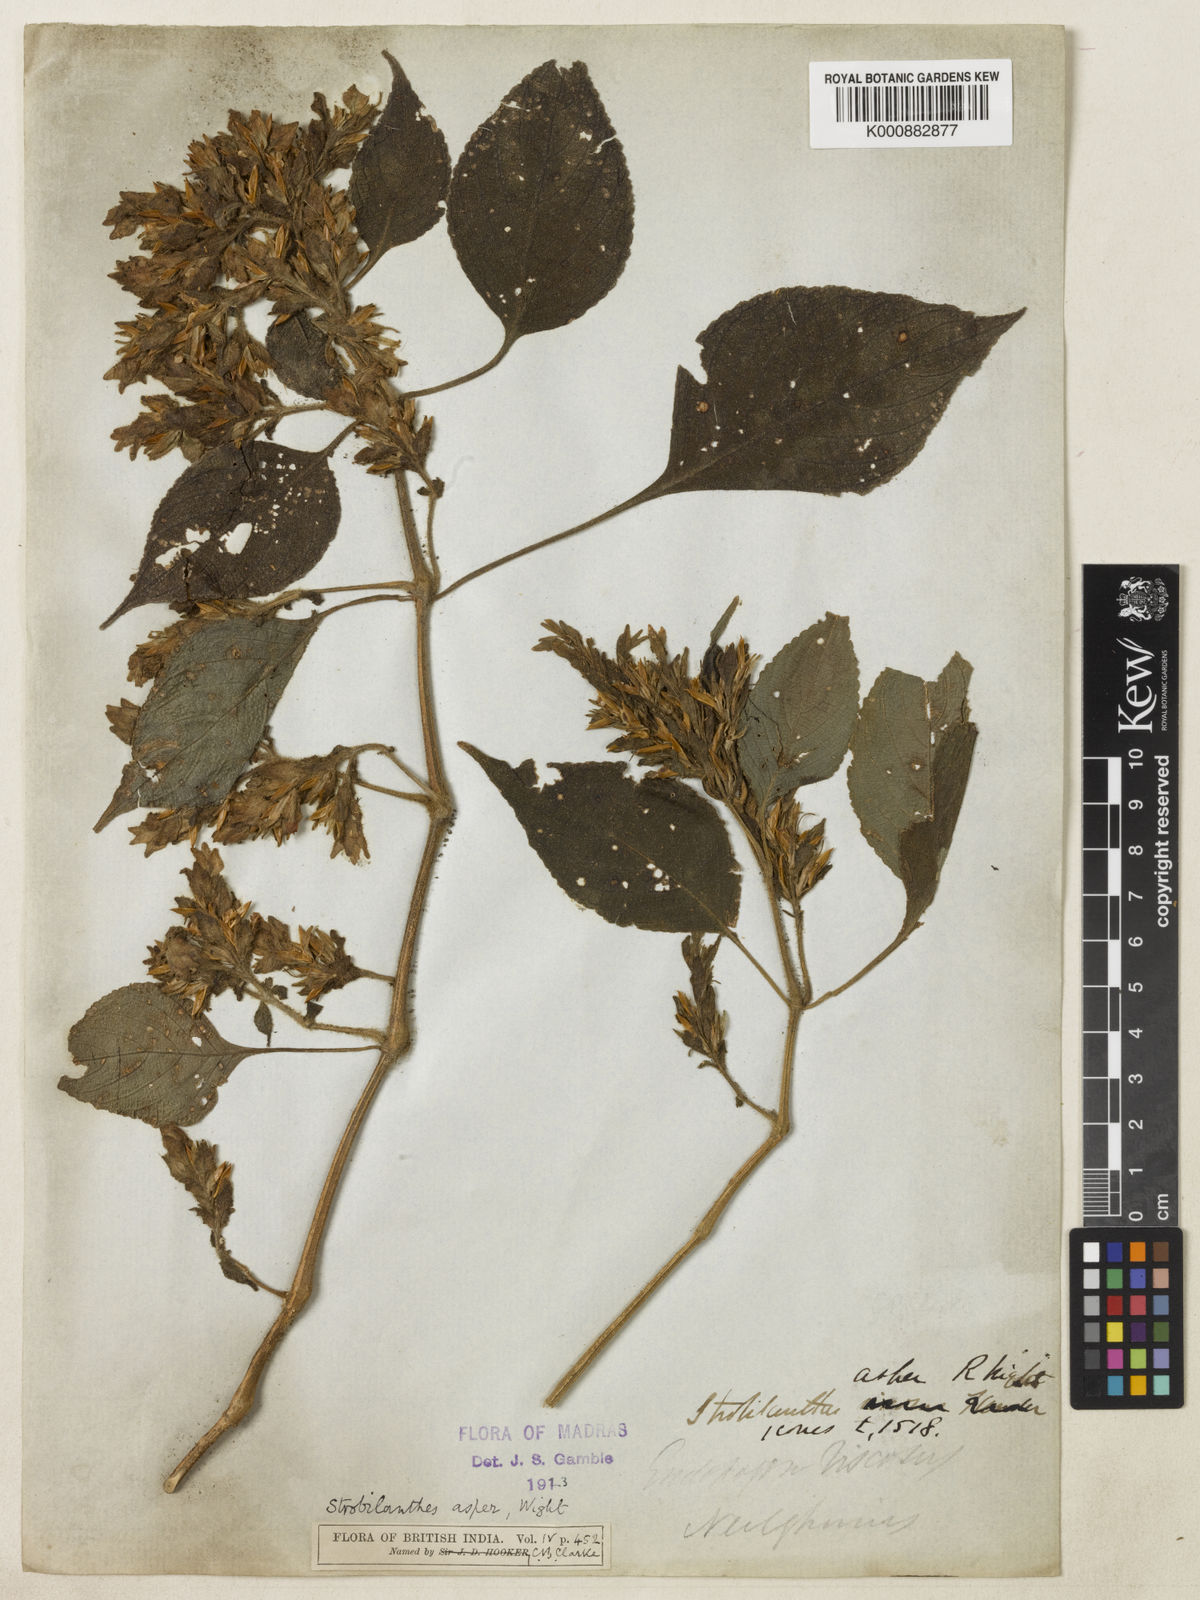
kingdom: Plantae
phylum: Tracheophyta
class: Magnoliopsida
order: Lamiales
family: Acanthaceae
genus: Strobilanthes
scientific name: Strobilanthes ciliata
